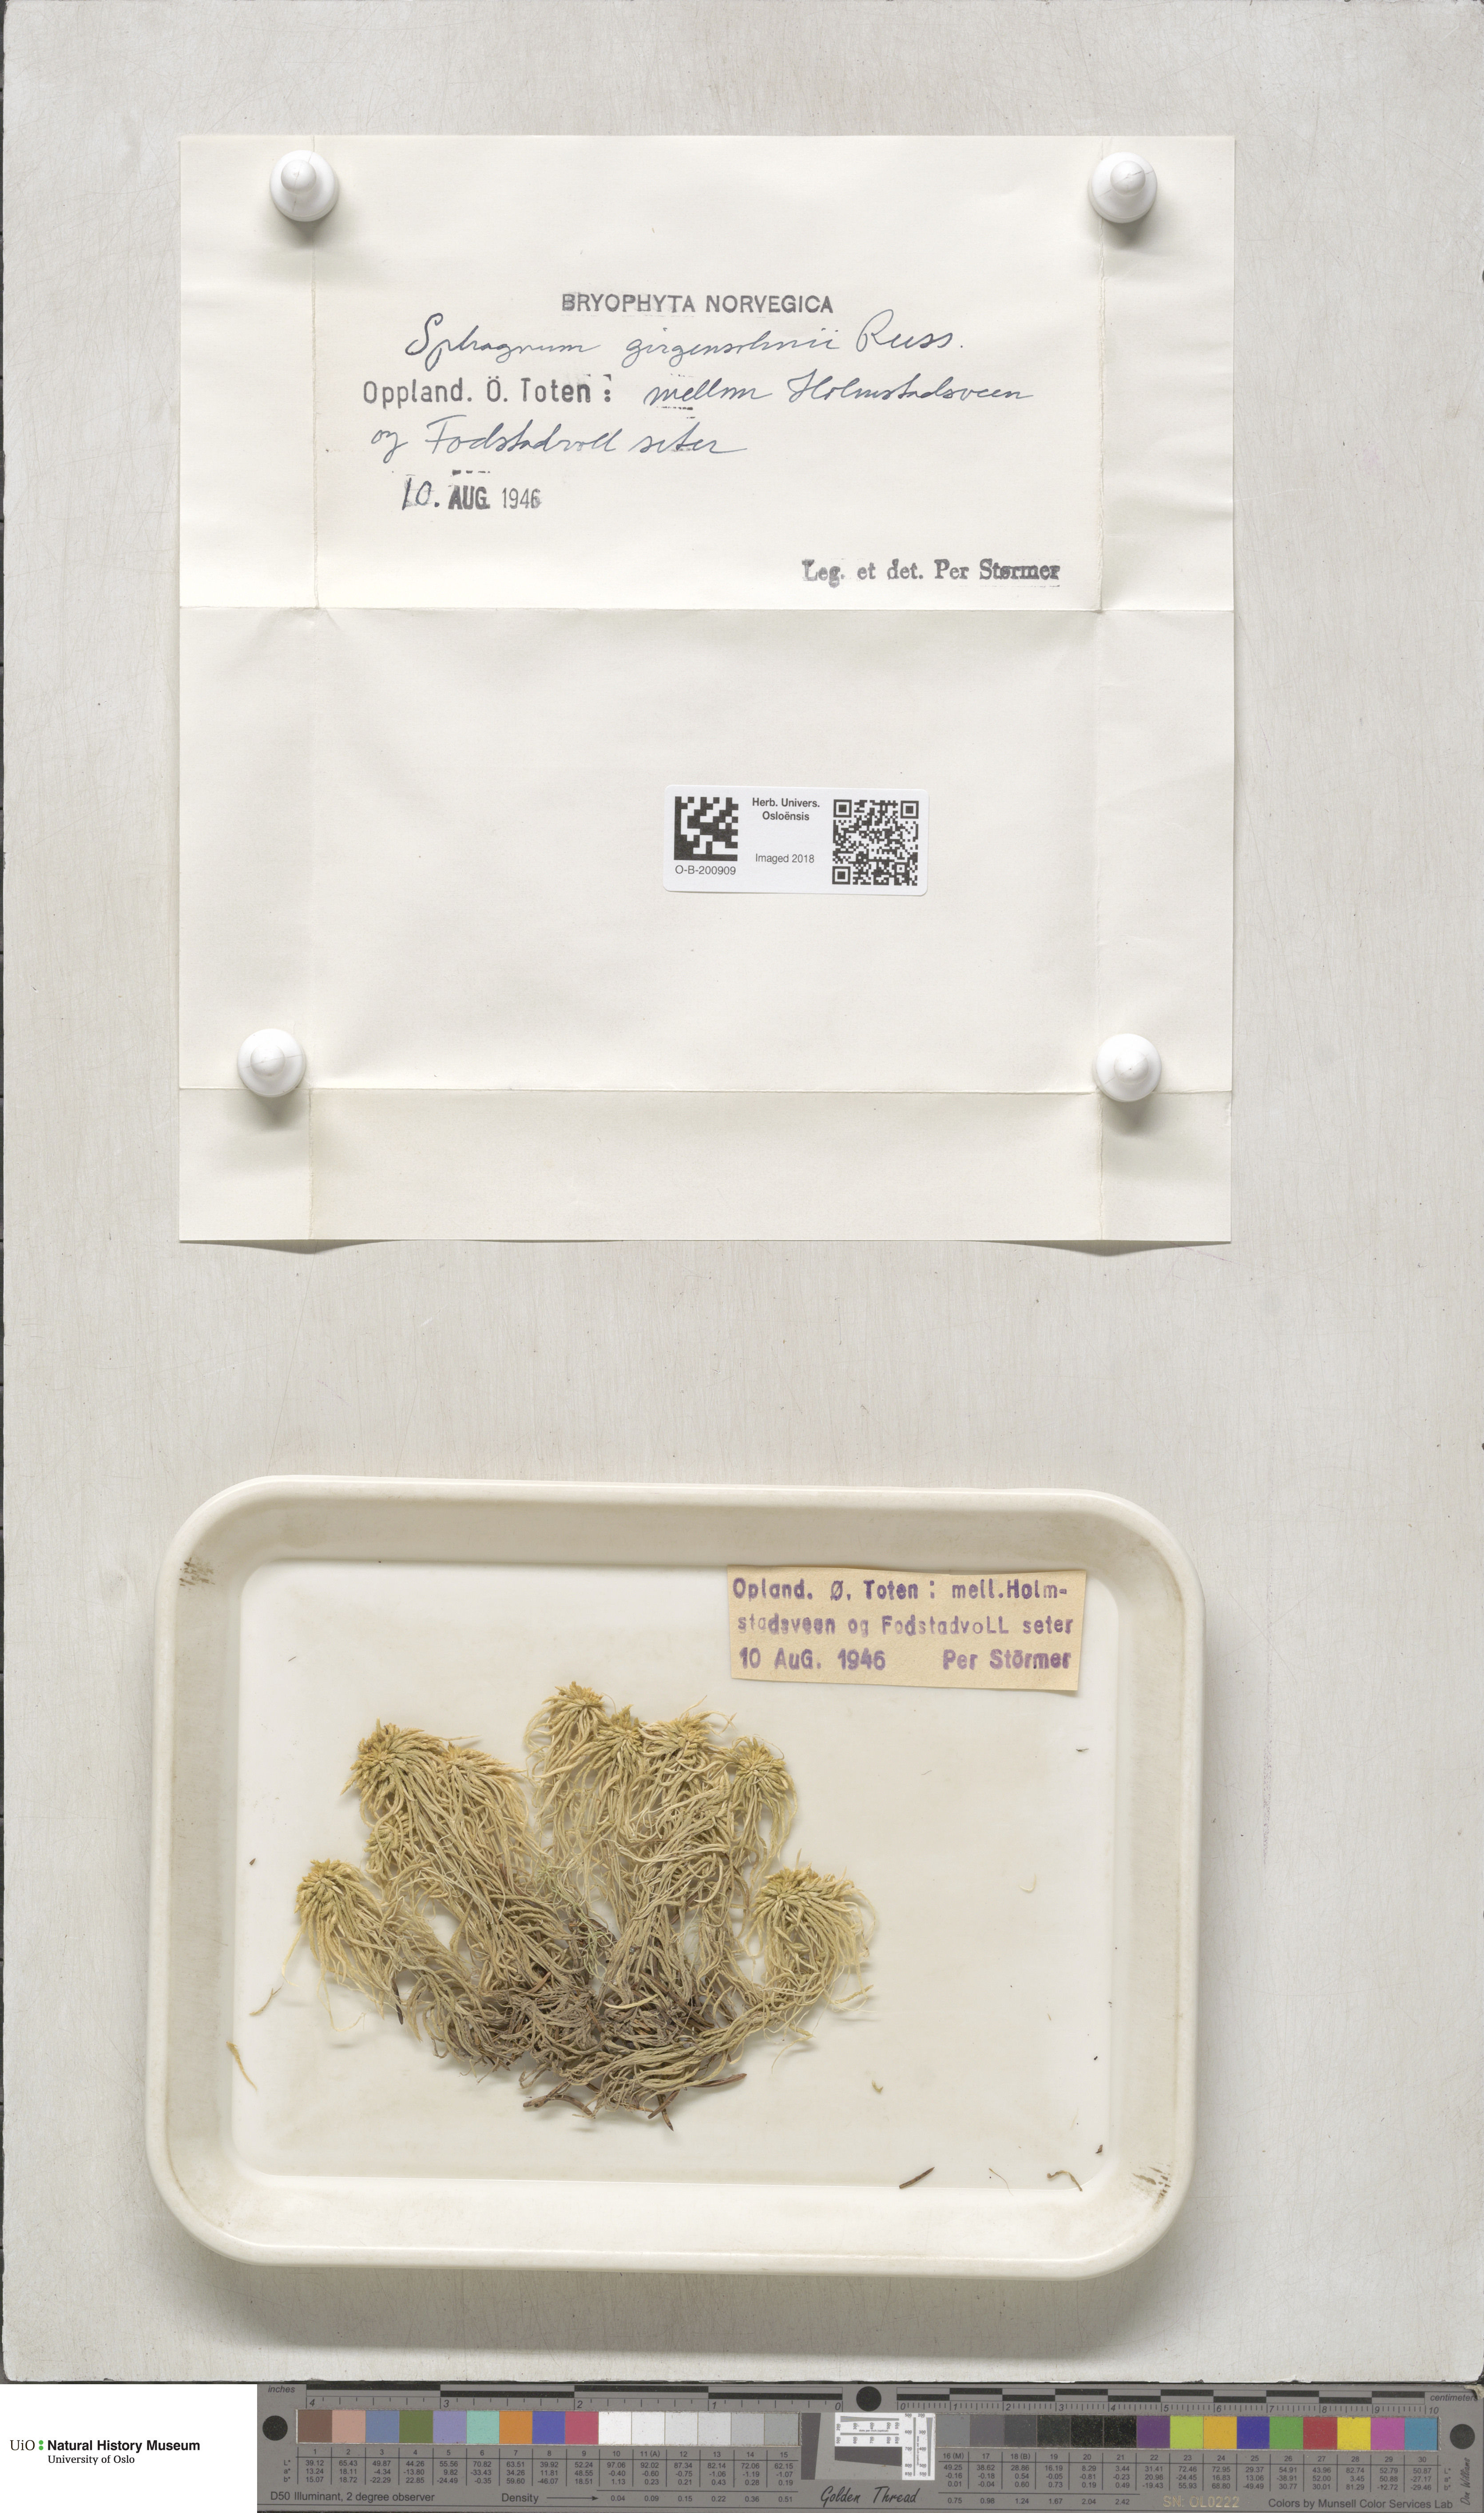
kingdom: Plantae
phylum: Bryophyta
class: Sphagnopsida
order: Sphagnales
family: Sphagnaceae
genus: Sphagnum
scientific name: Sphagnum girgensohnii
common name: Girgensohn's peat moss
